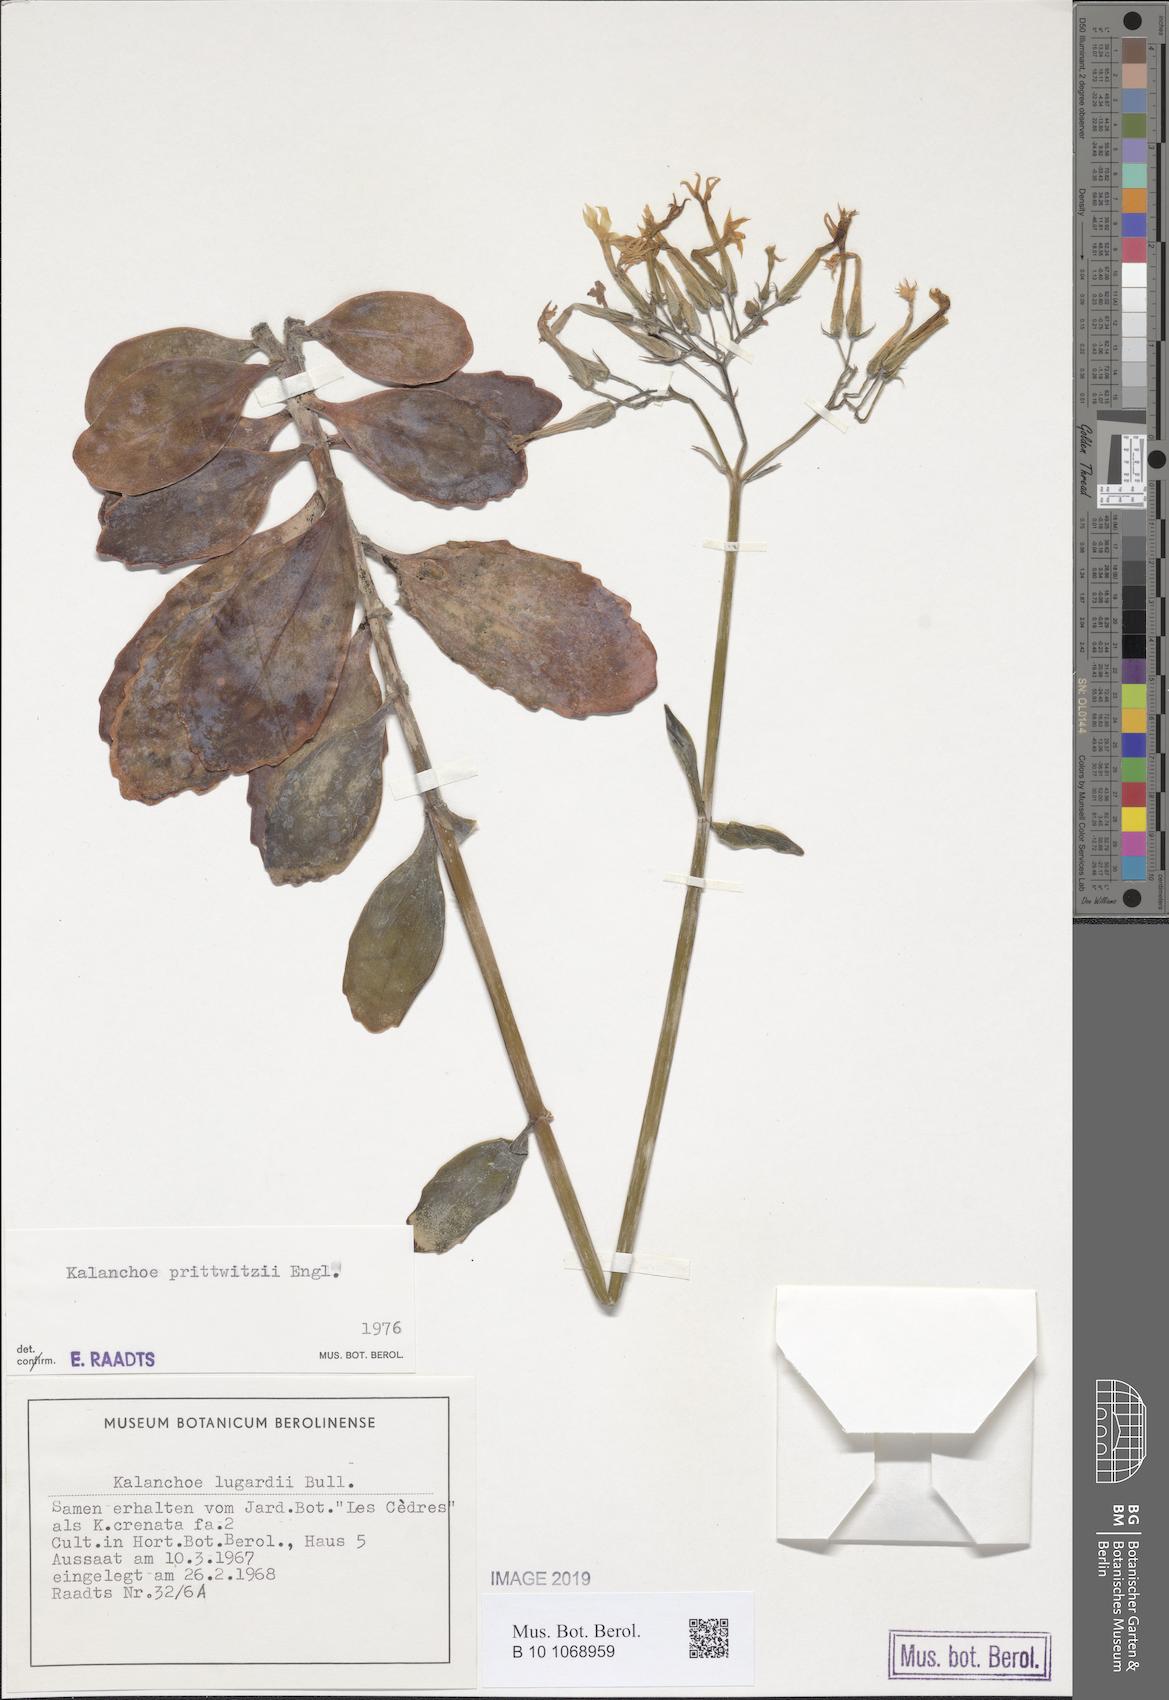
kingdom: Plantae
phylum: Tracheophyta
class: Magnoliopsida
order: Saxifragales
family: Crassulaceae
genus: Kalanchoe
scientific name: Kalanchoe prittwitzii
